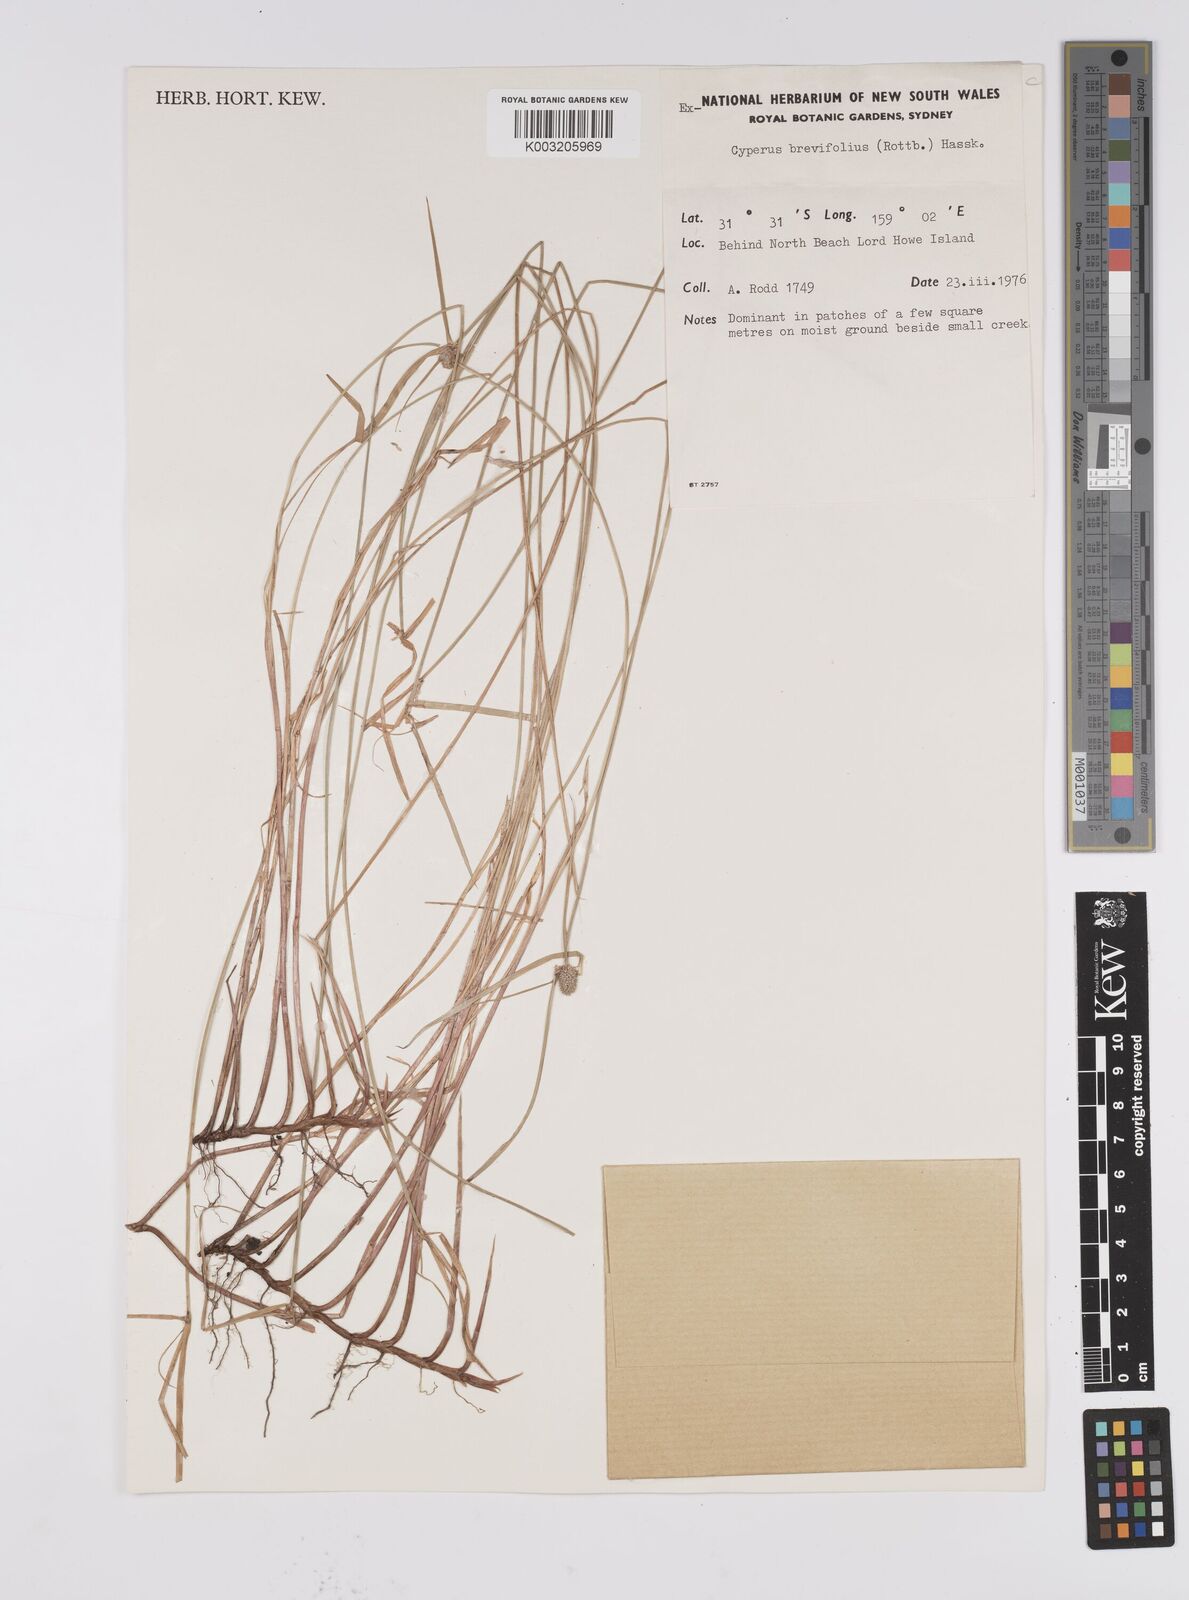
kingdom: Plantae
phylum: Tracheophyta
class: Liliopsida
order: Poales
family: Cyperaceae
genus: Cyperus
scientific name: Cyperus brevifolius
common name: Globe kyllinga
